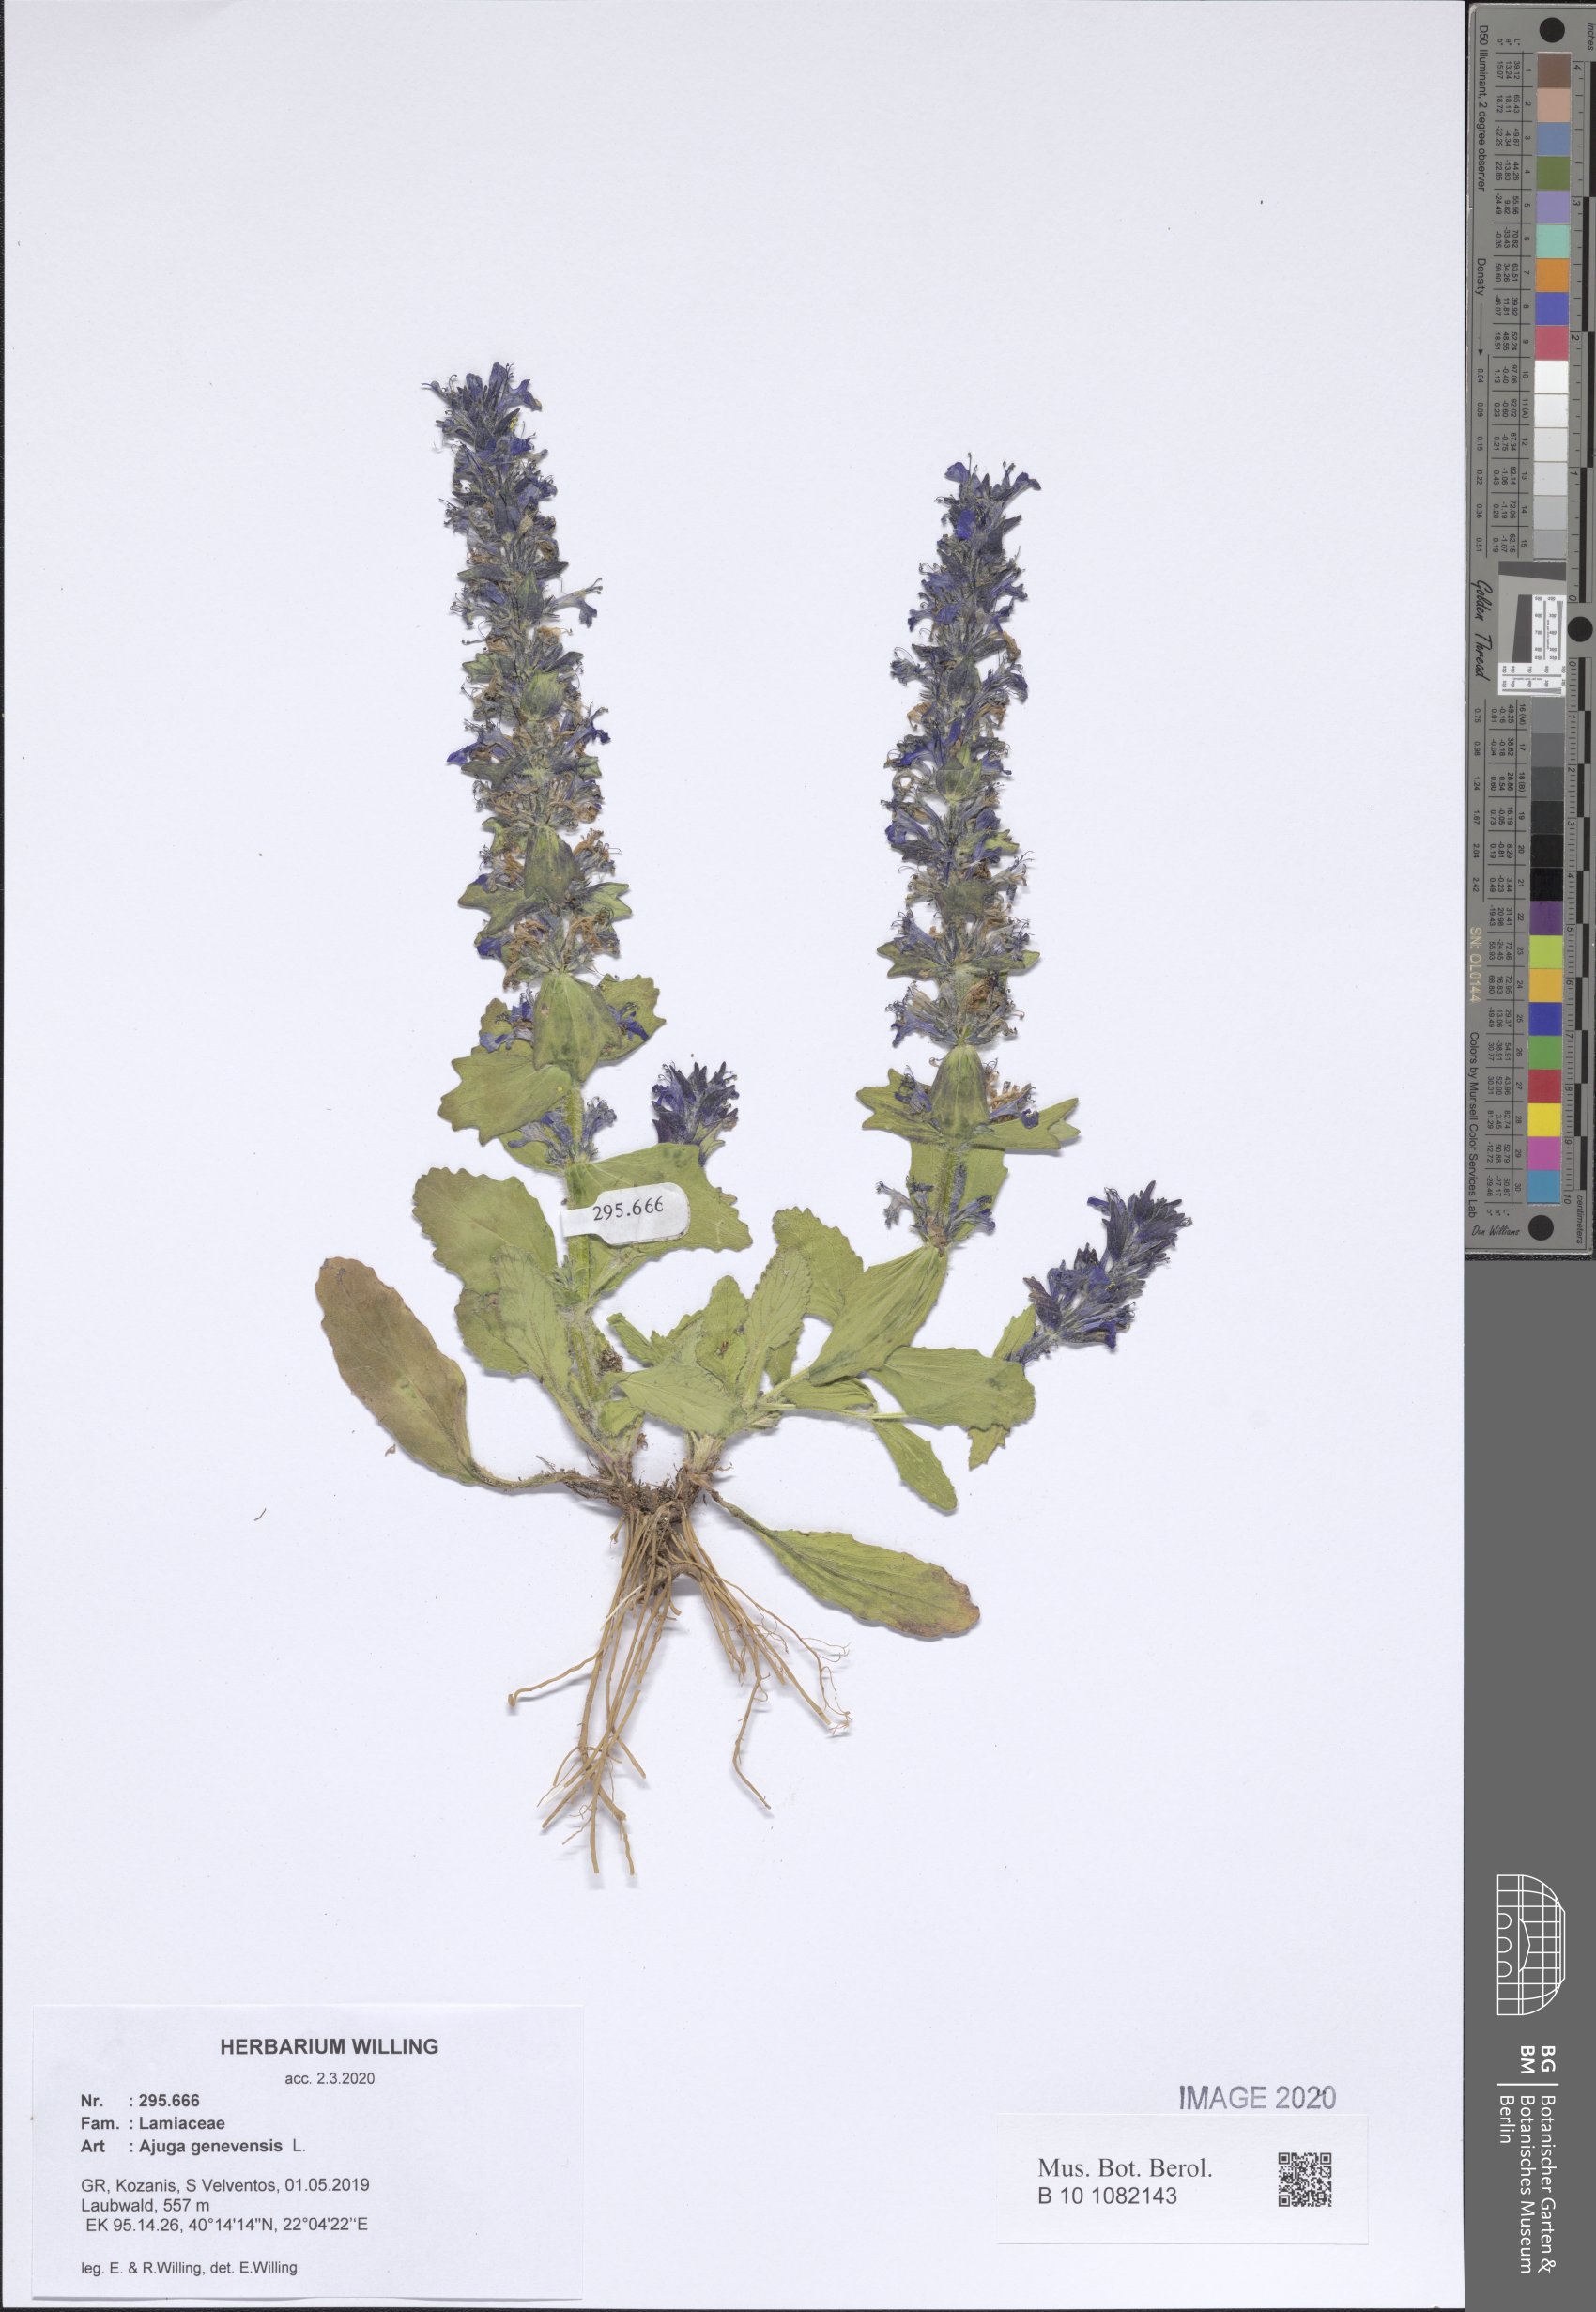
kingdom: Plantae
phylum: Tracheophyta
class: Magnoliopsida
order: Lamiales
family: Lamiaceae
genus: Ajuga
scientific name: Ajuga genevensis
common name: Blue bugle
